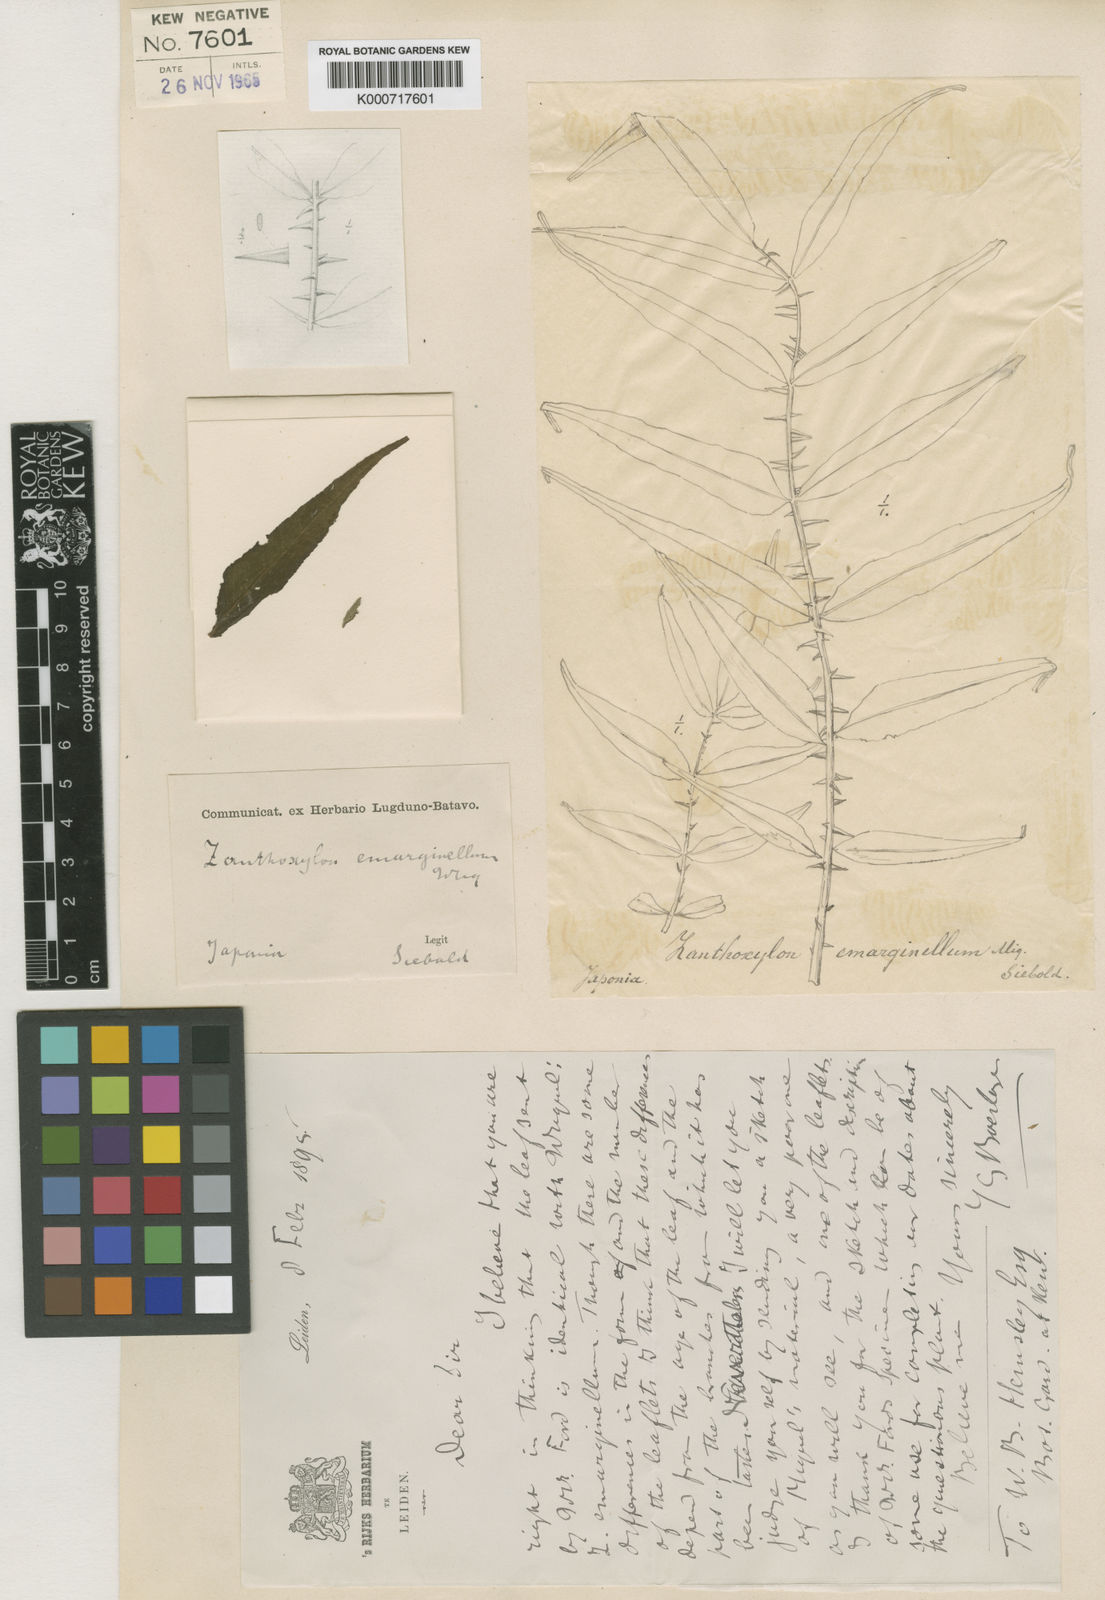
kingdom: Plantae
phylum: Tracheophyta
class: Magnoliopsida
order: Sapindales
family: Rutaceae
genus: Zanthoxylum
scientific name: Zanthoxylum ailanthoides
